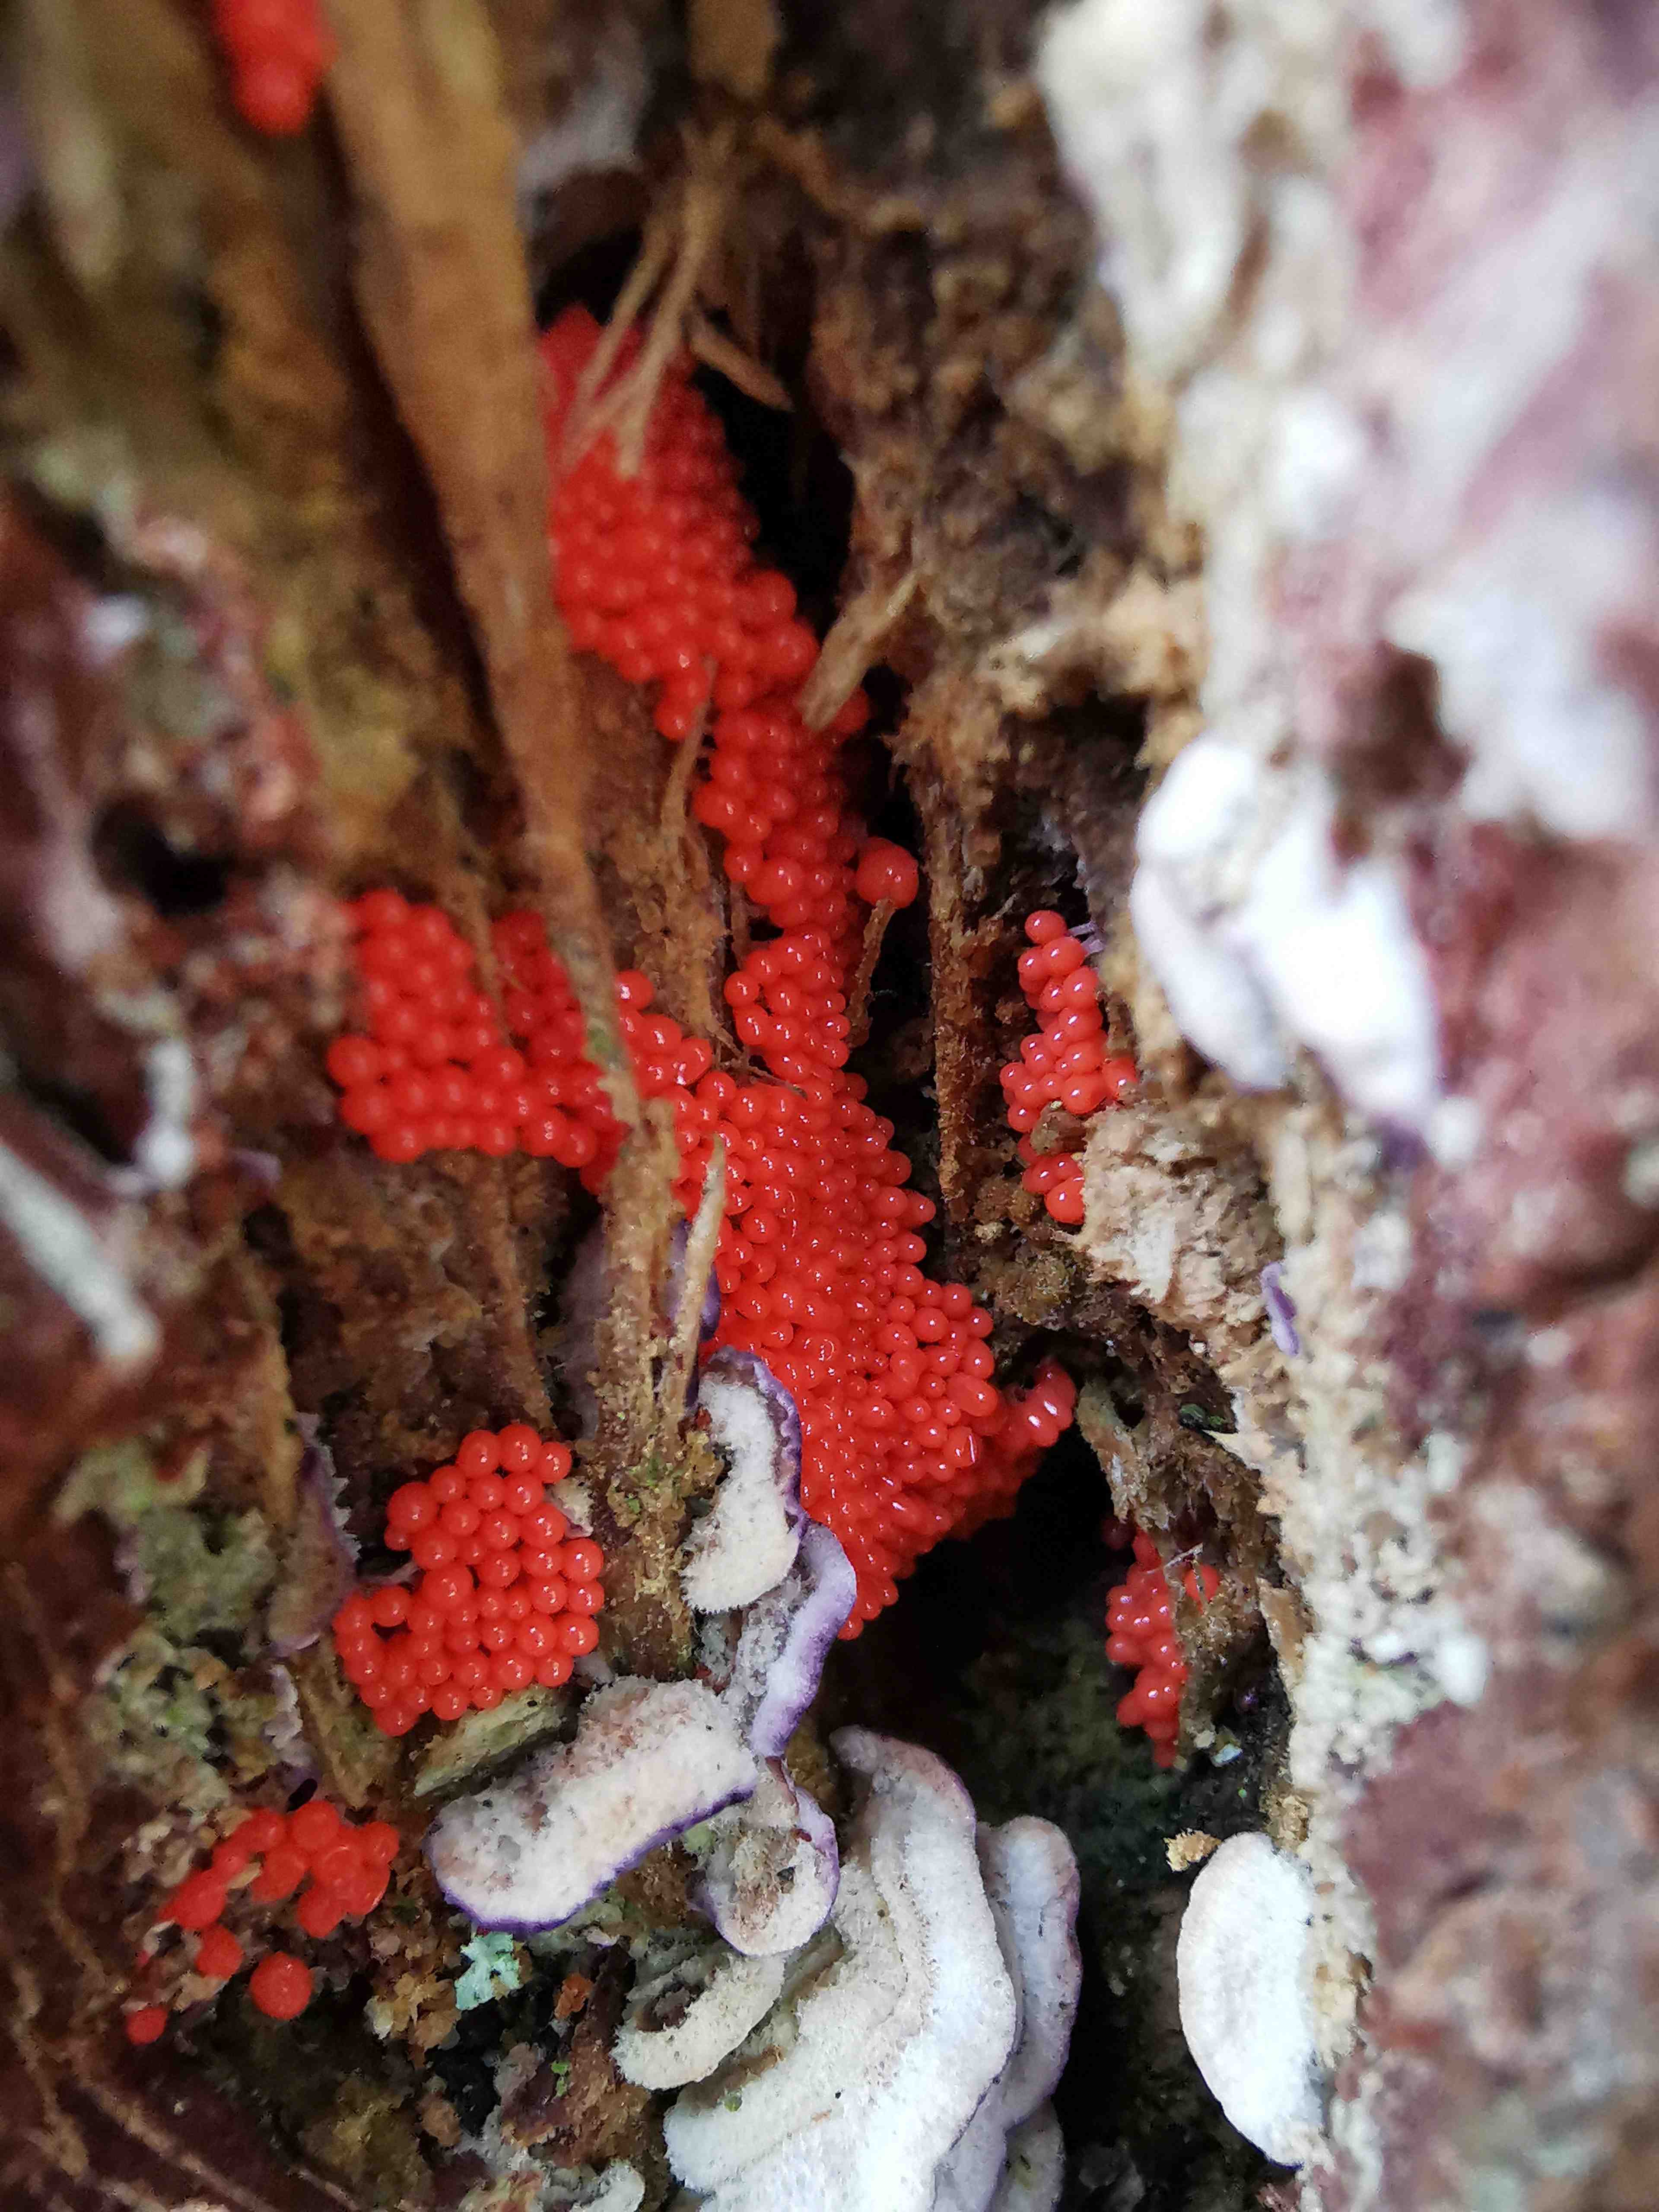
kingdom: Protozoa
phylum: Mycetozoa
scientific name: Mycetozoa
